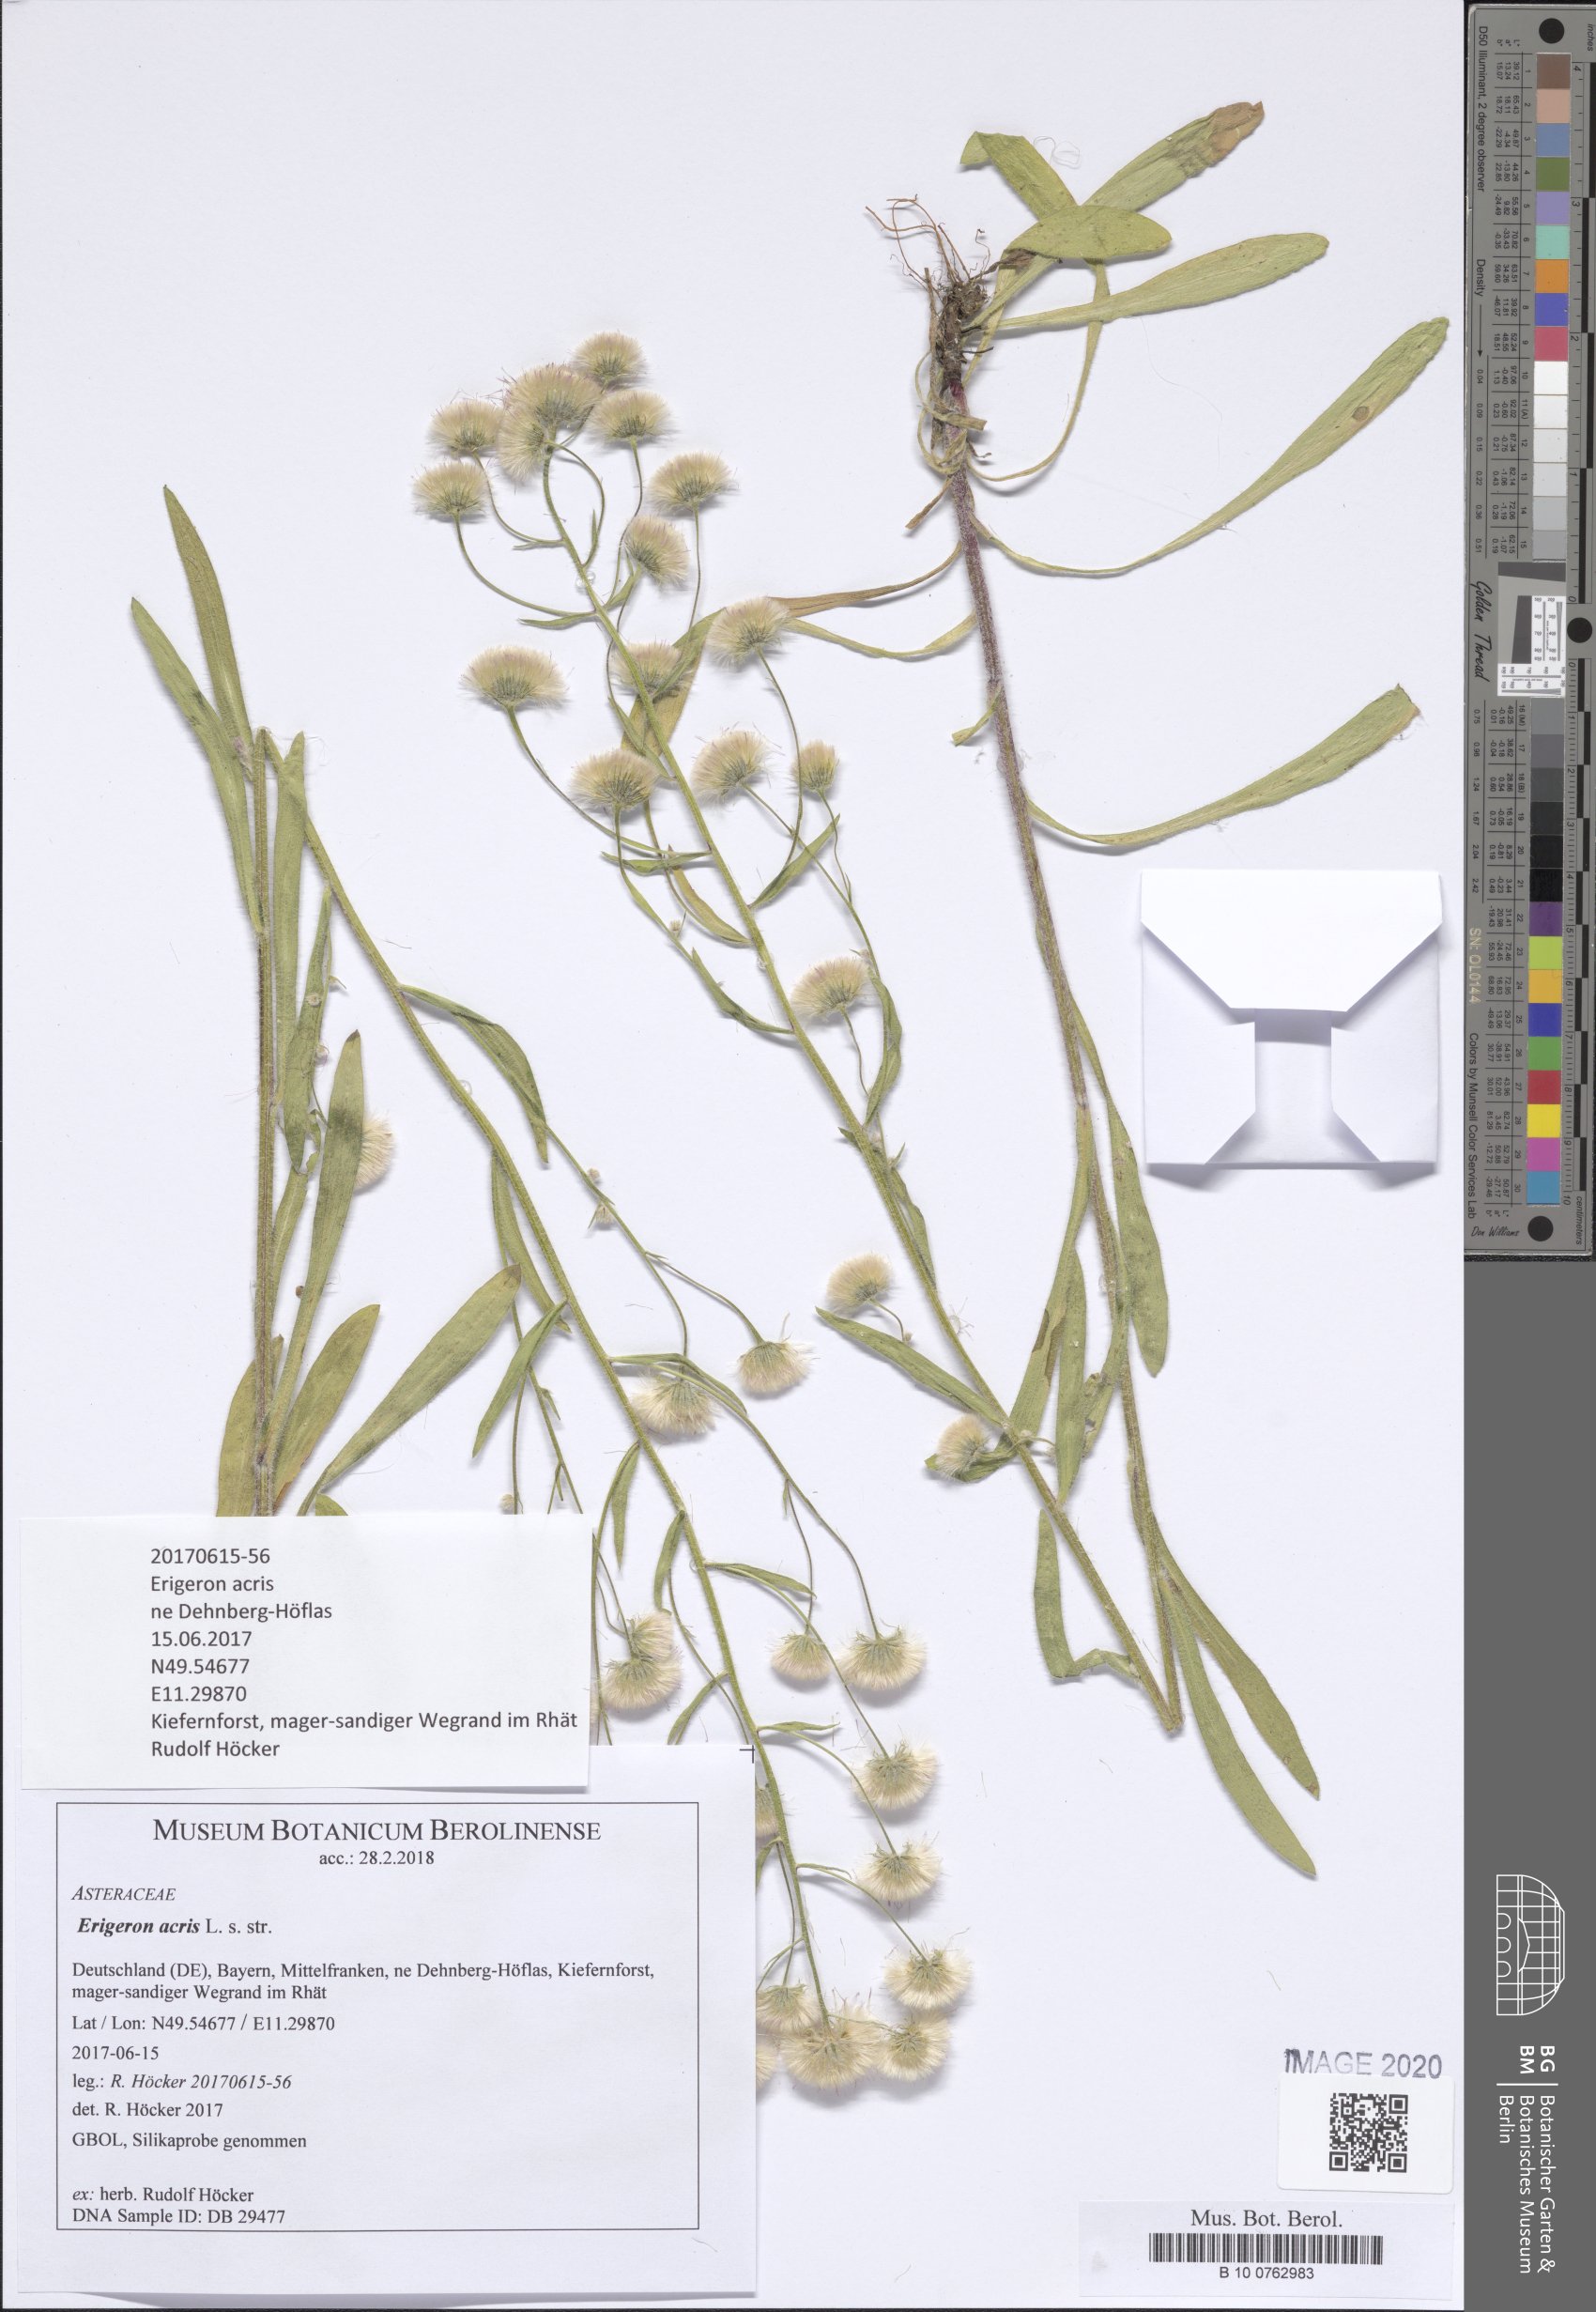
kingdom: Plantae
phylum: Tracheophyta
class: Magnoliopsida
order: Asterales
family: Asteraceae
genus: Erigeron
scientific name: Erigeron acris
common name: Blue fleabane
